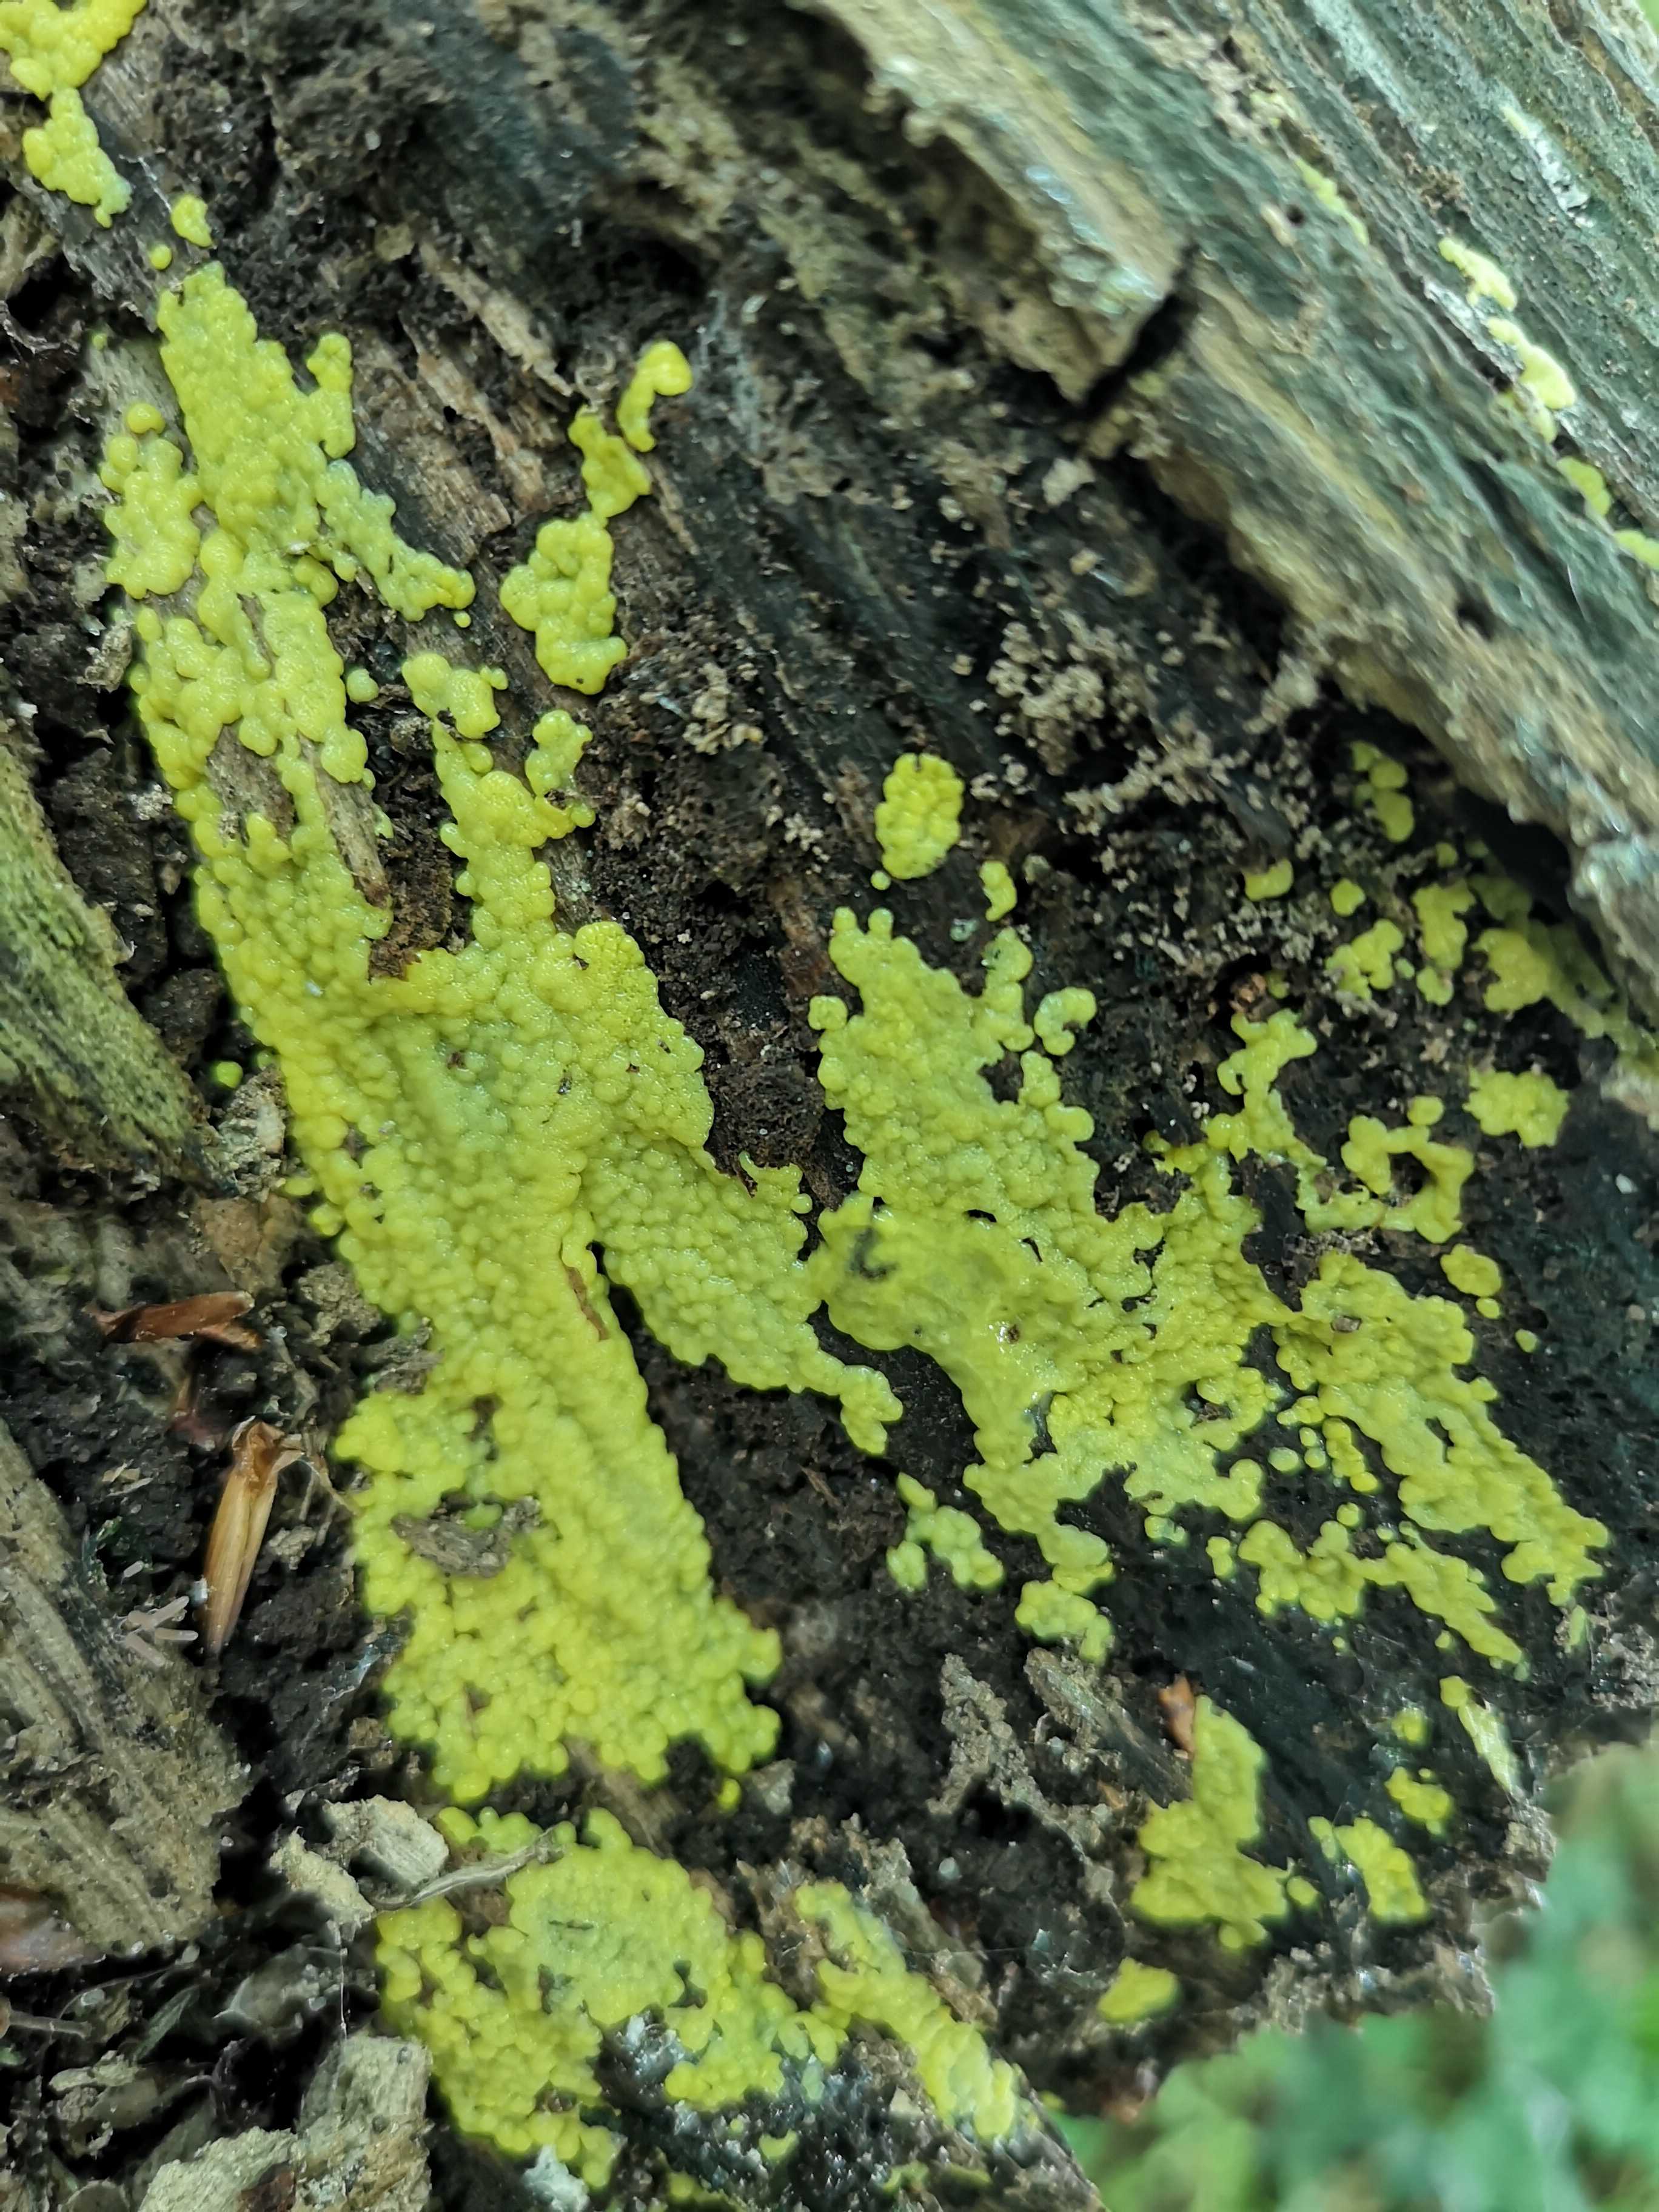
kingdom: Protozoa
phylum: Mycetozoa
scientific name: Mycetozoa
